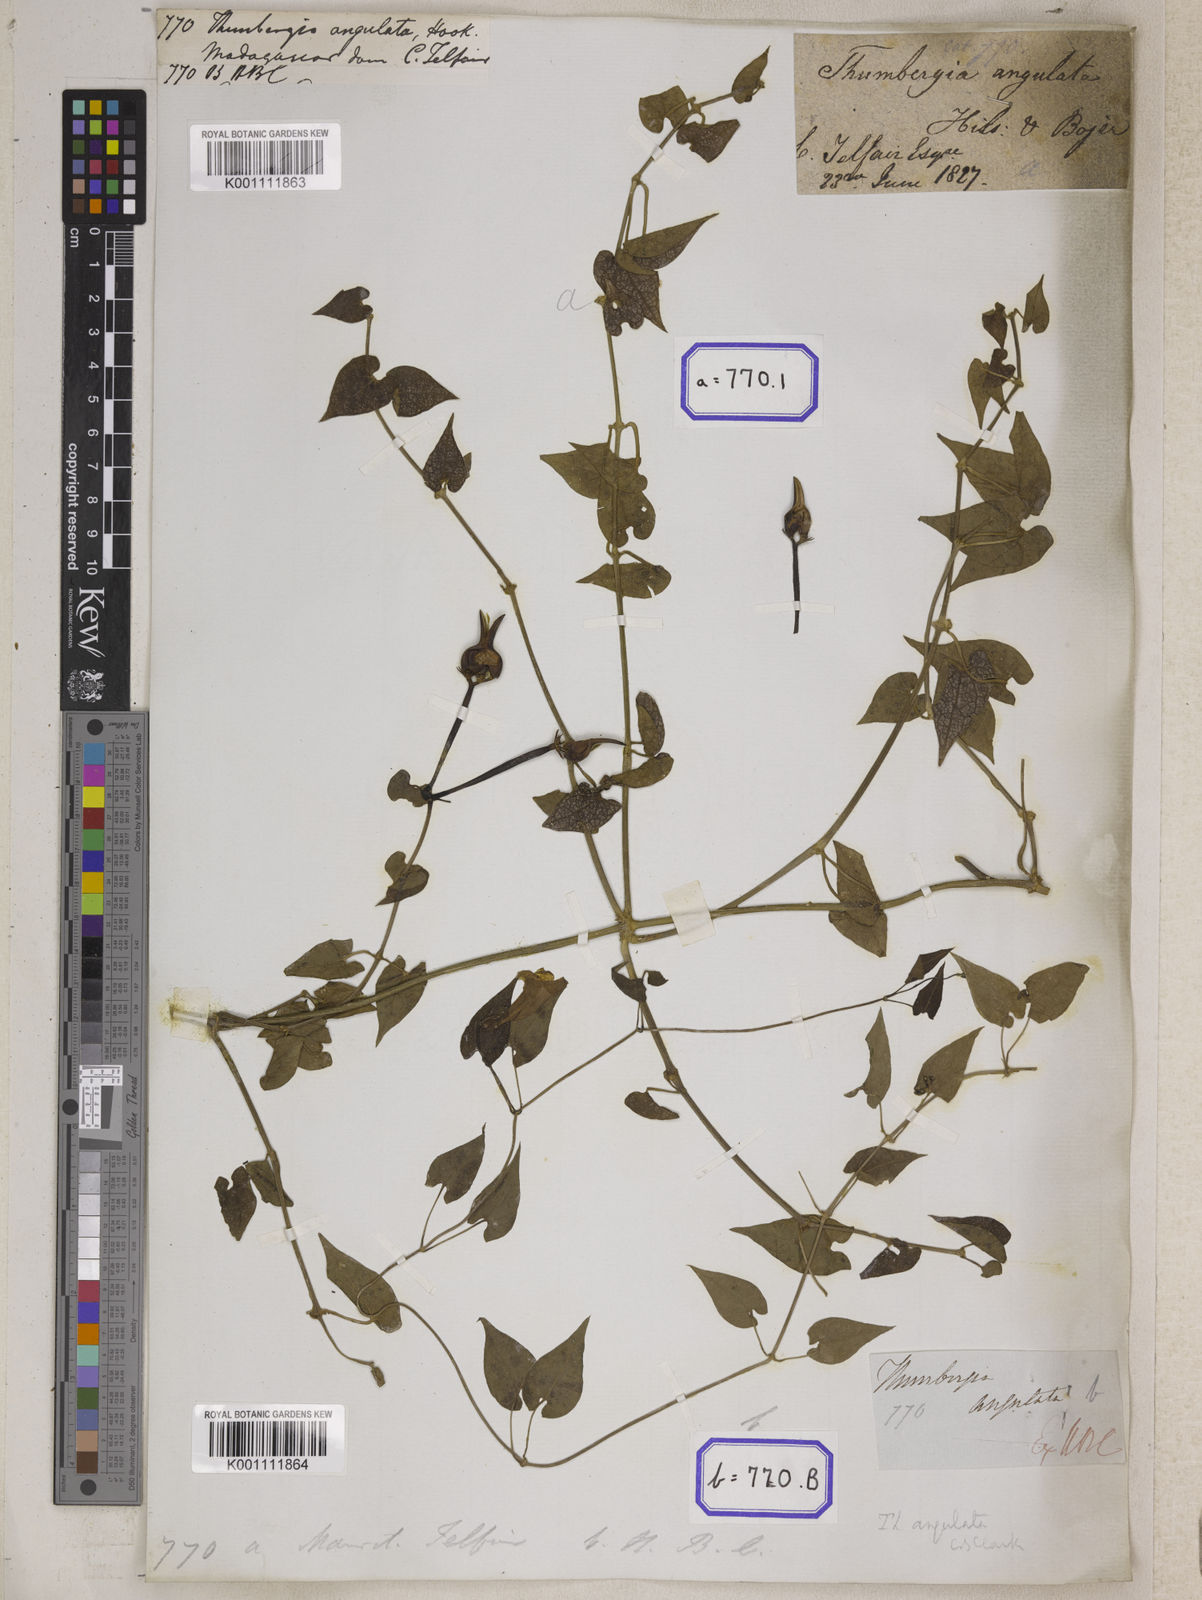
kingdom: Plantae
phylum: Tracheophyta
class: Magnoliopsida
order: Lamiales
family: Acanthaceae
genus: Thunbergia
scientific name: Thunbergia angulata
